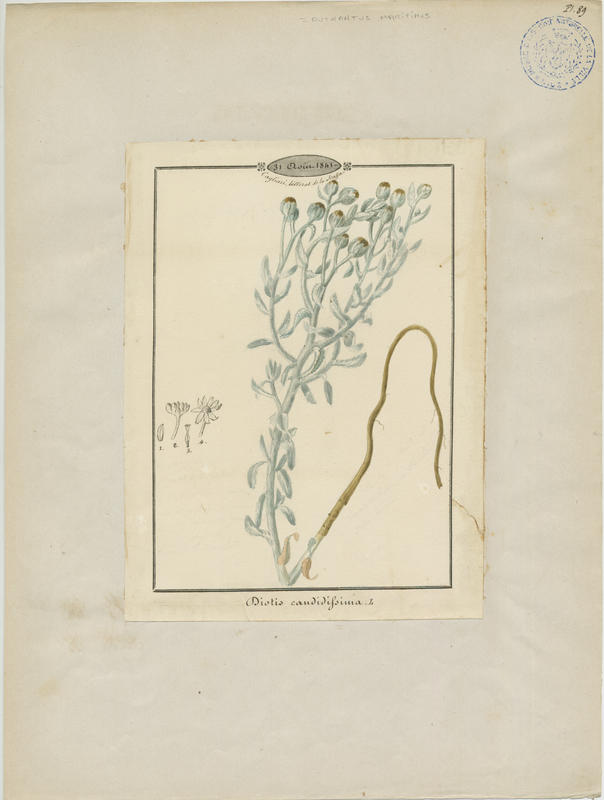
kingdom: Plantae
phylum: Tracheophyta
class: Magnoliopsida
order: Asterales
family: Asteraceae
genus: Achillea
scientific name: Achillea maritima
